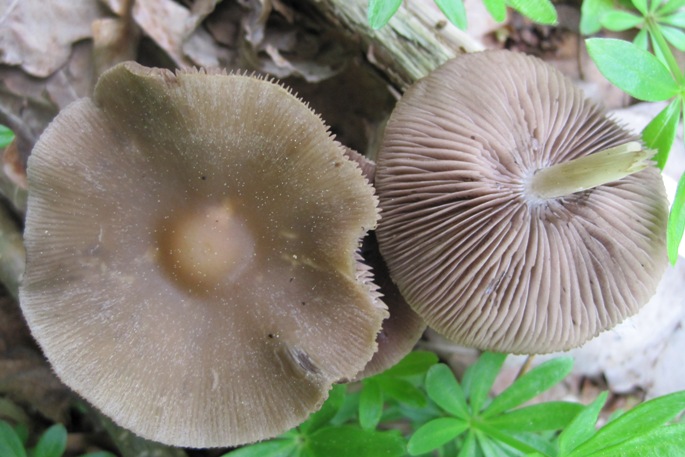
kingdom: Fungi
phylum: Basidiomycota
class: Agaricomycetes
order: Agaricales
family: Psathyrellaceae
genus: Psathyrella
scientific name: Psathyrella spadiceogrisea
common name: gråbrun mørkhat
